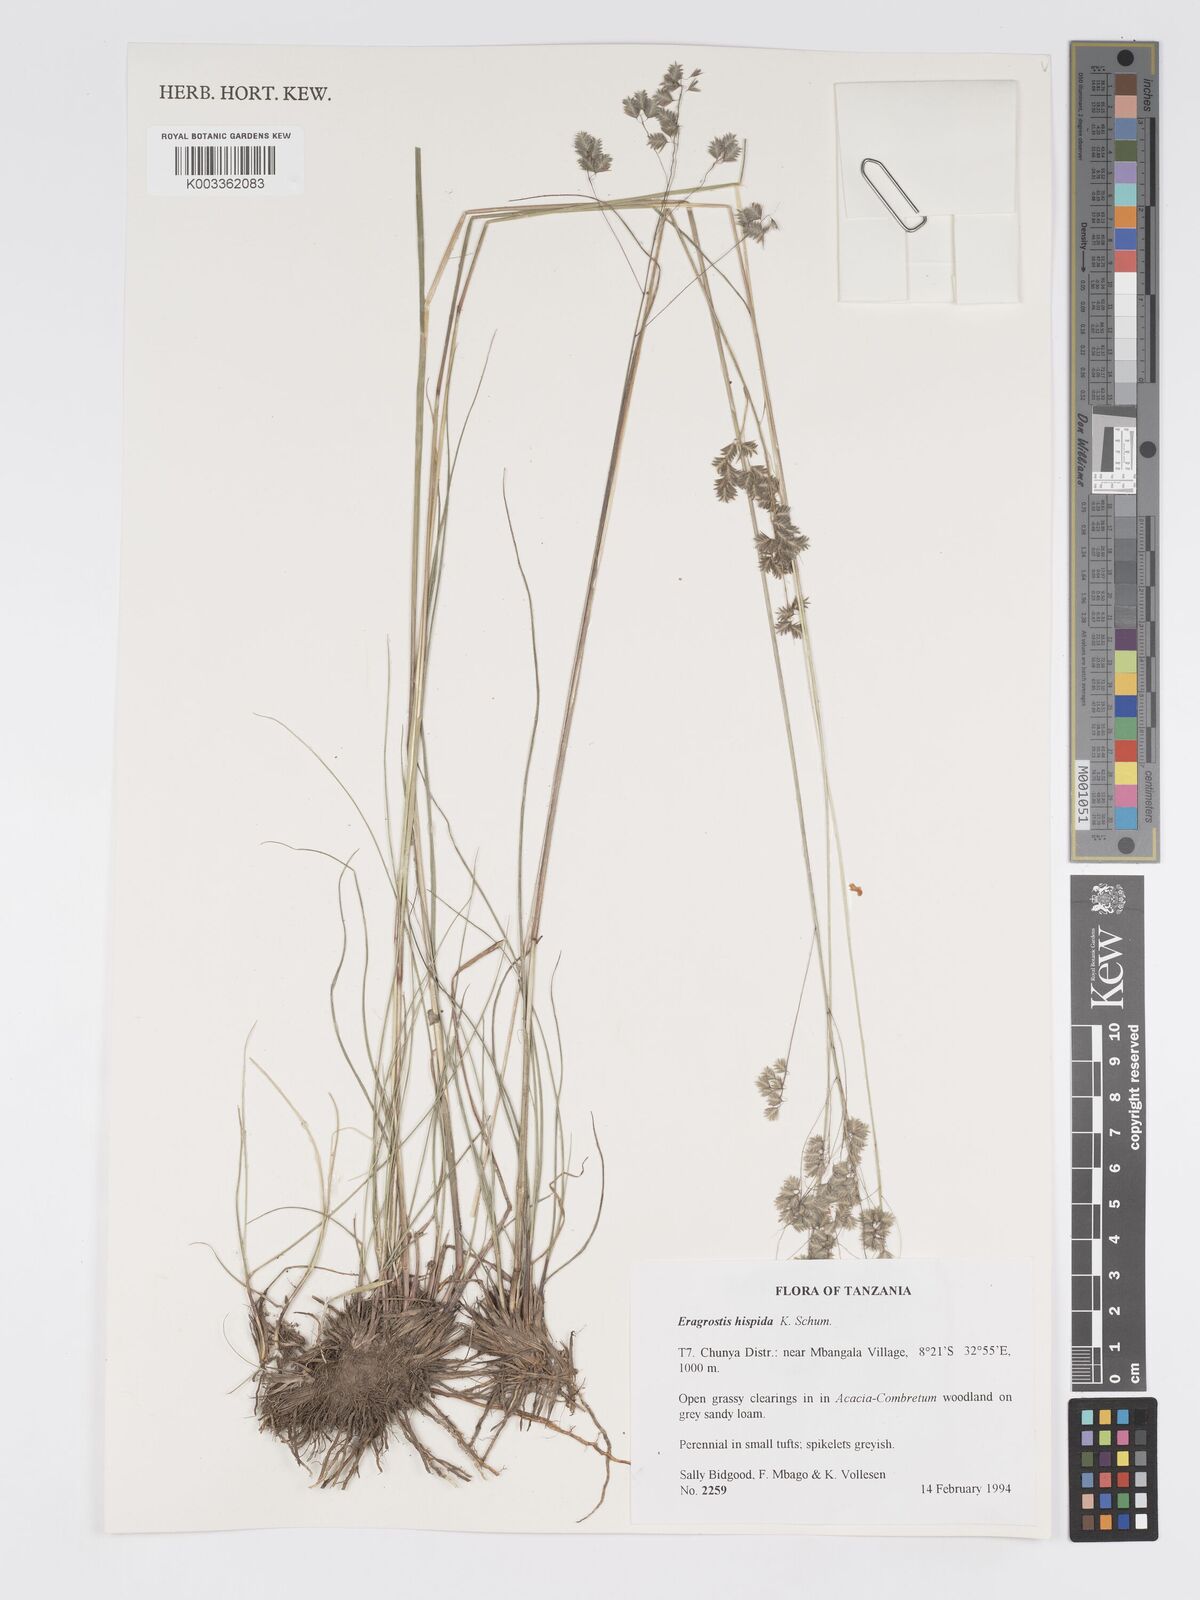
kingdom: Plantae
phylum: Tracheophyta
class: Liliopsida
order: Poales
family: Poaceae
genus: Eragrostis
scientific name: Eragrostis hispida
